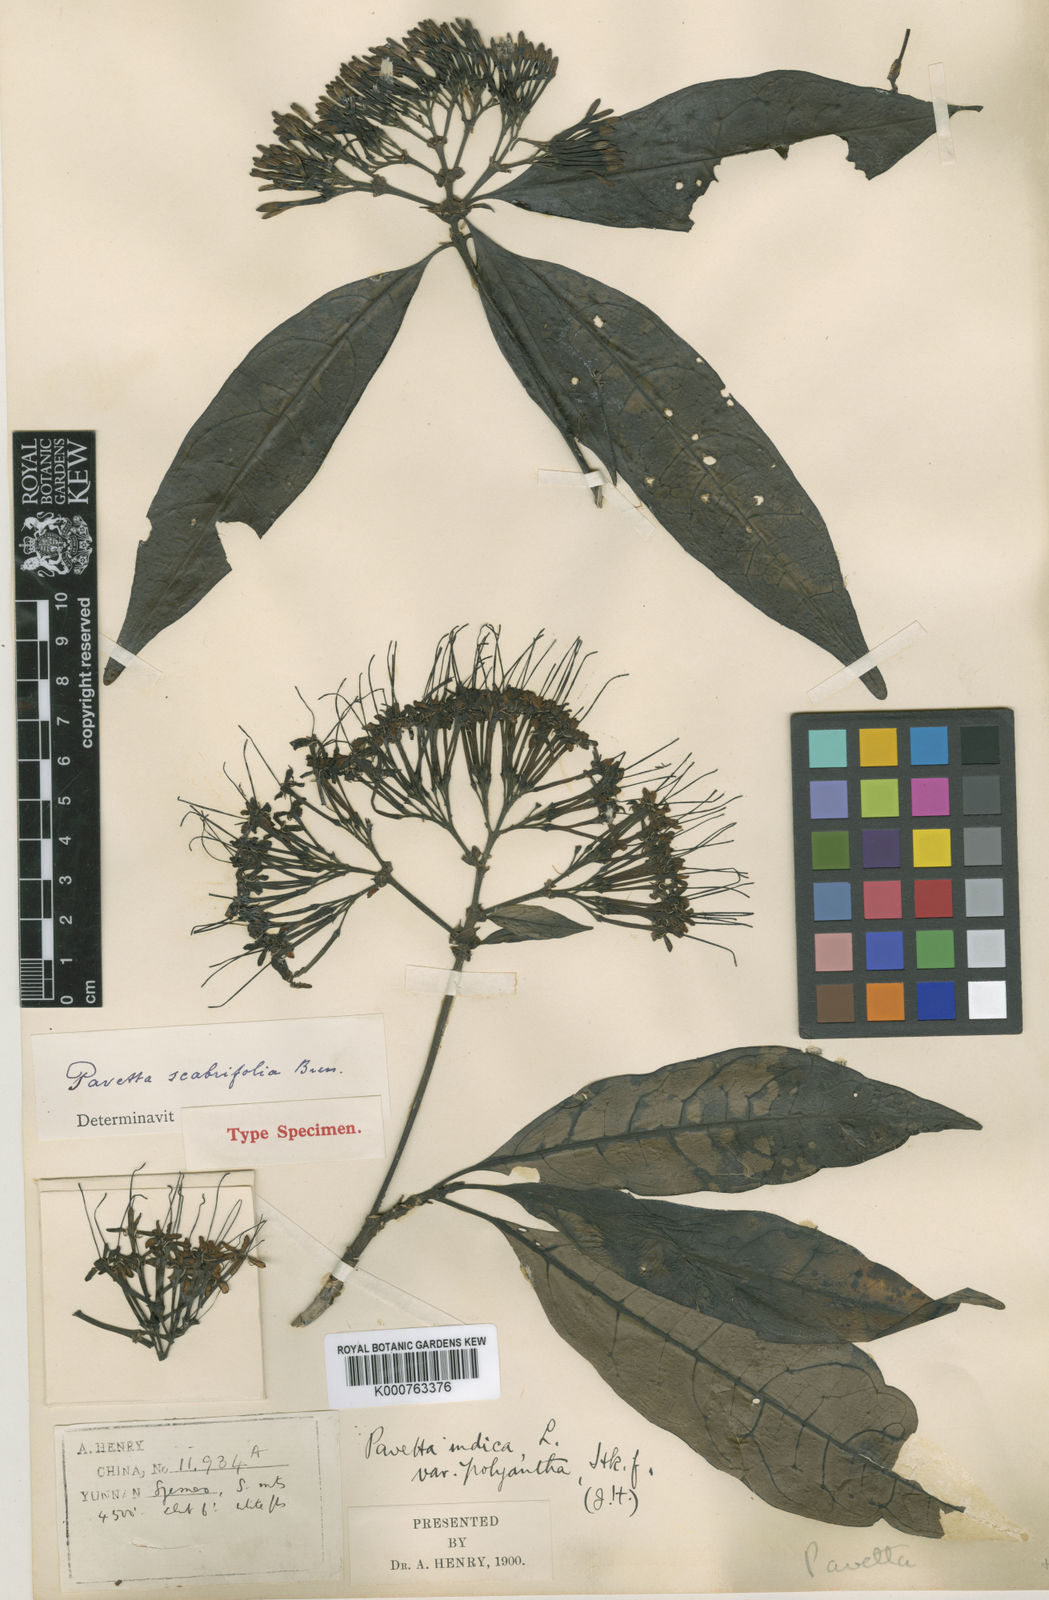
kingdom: Plantae
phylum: Tracheophyta
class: Magnoliopsida
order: Gentianales
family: Rubiaceae
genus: Pavetta
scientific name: Pavetta scabrifolia
